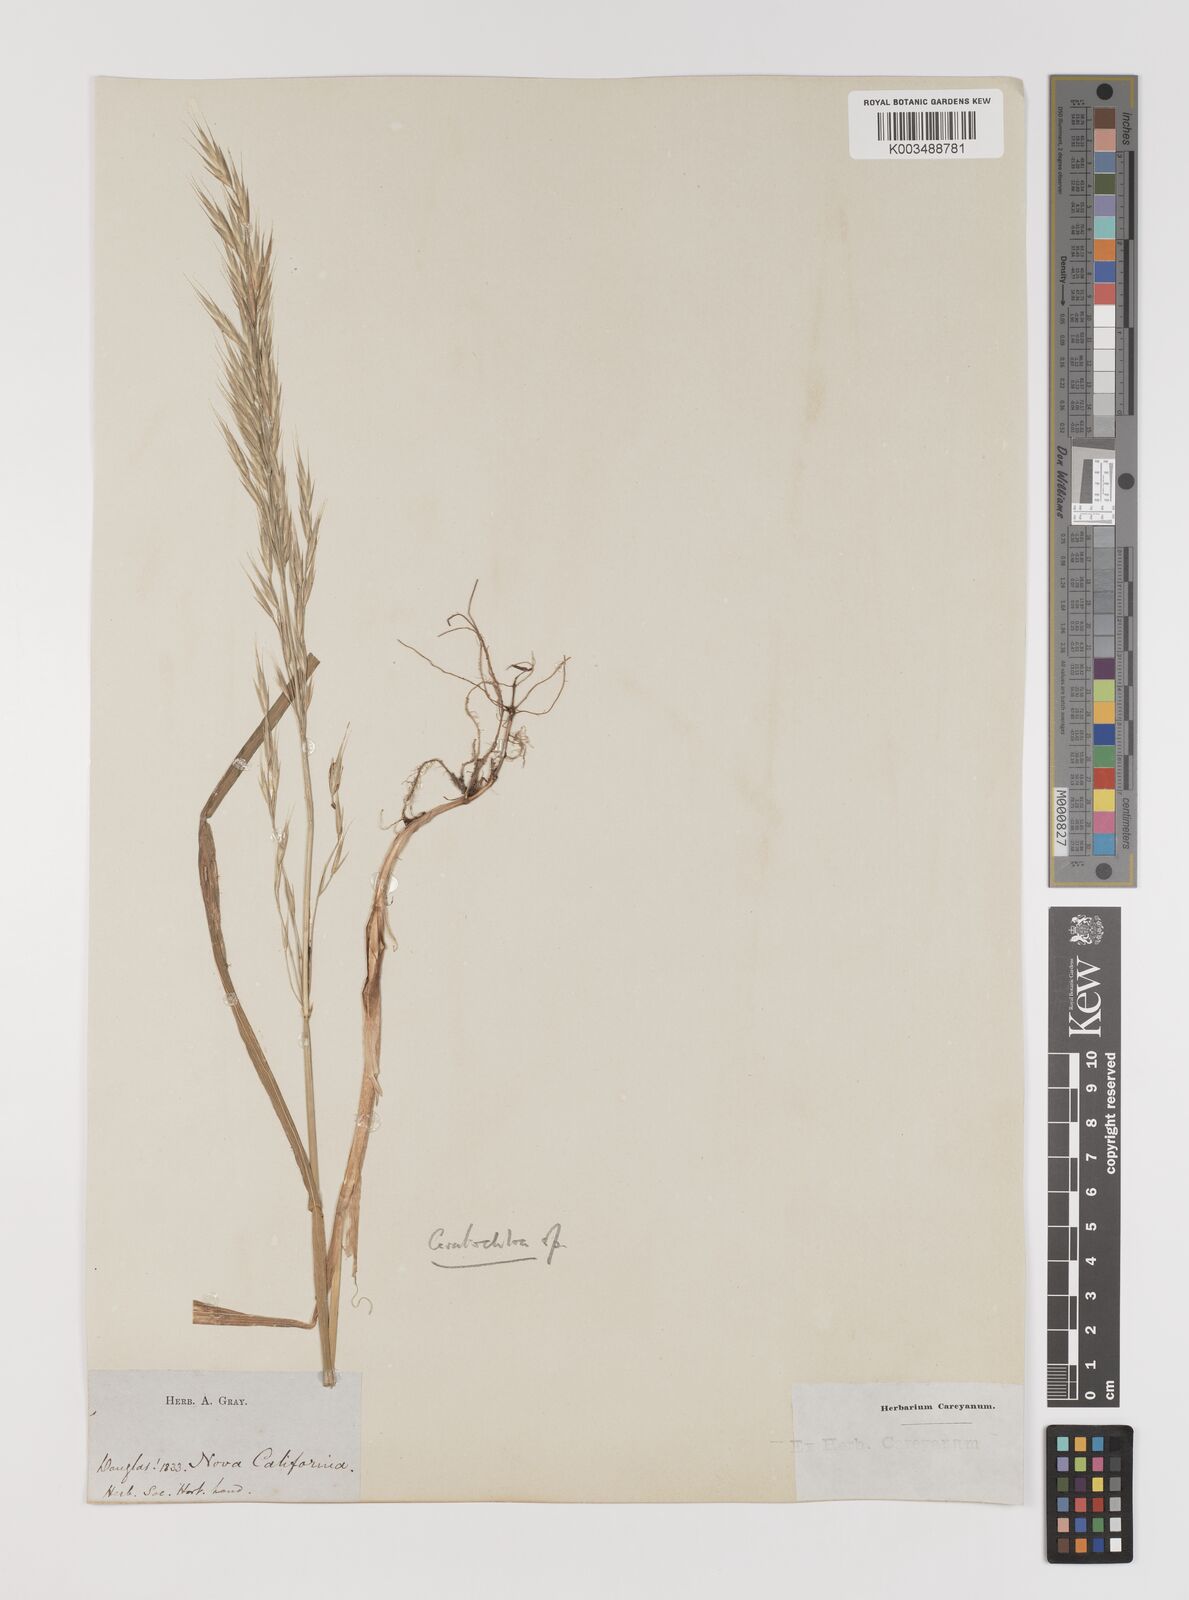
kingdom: Plantae
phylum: Tracheophyta
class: Liliopsida
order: Poales
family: Poaceae
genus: Bromus
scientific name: Bromus
